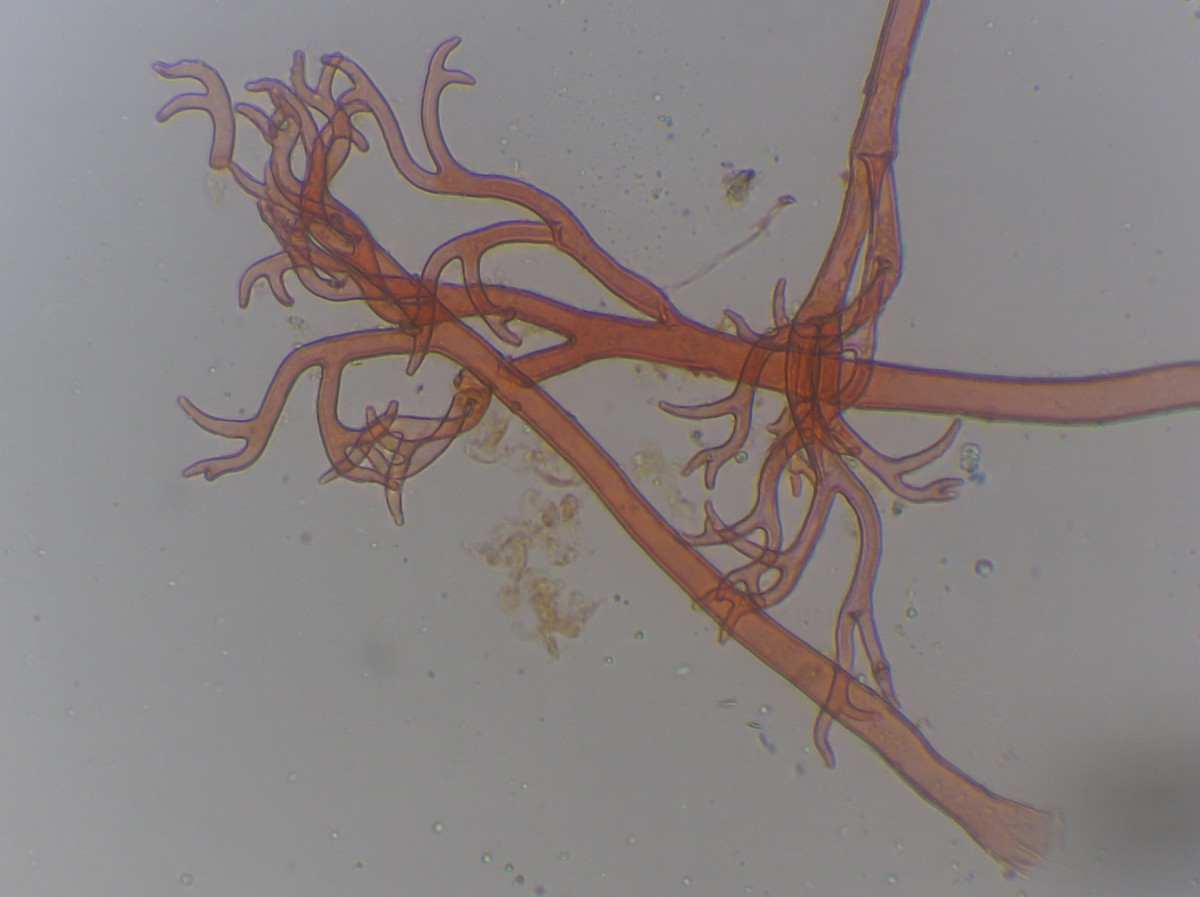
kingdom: Chromista
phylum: Oomycota
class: Peronosporea
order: Peronosporales
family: Peronosporaceae
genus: Peronospora
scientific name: Peronospora farinosa
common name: Beet downy mildew
